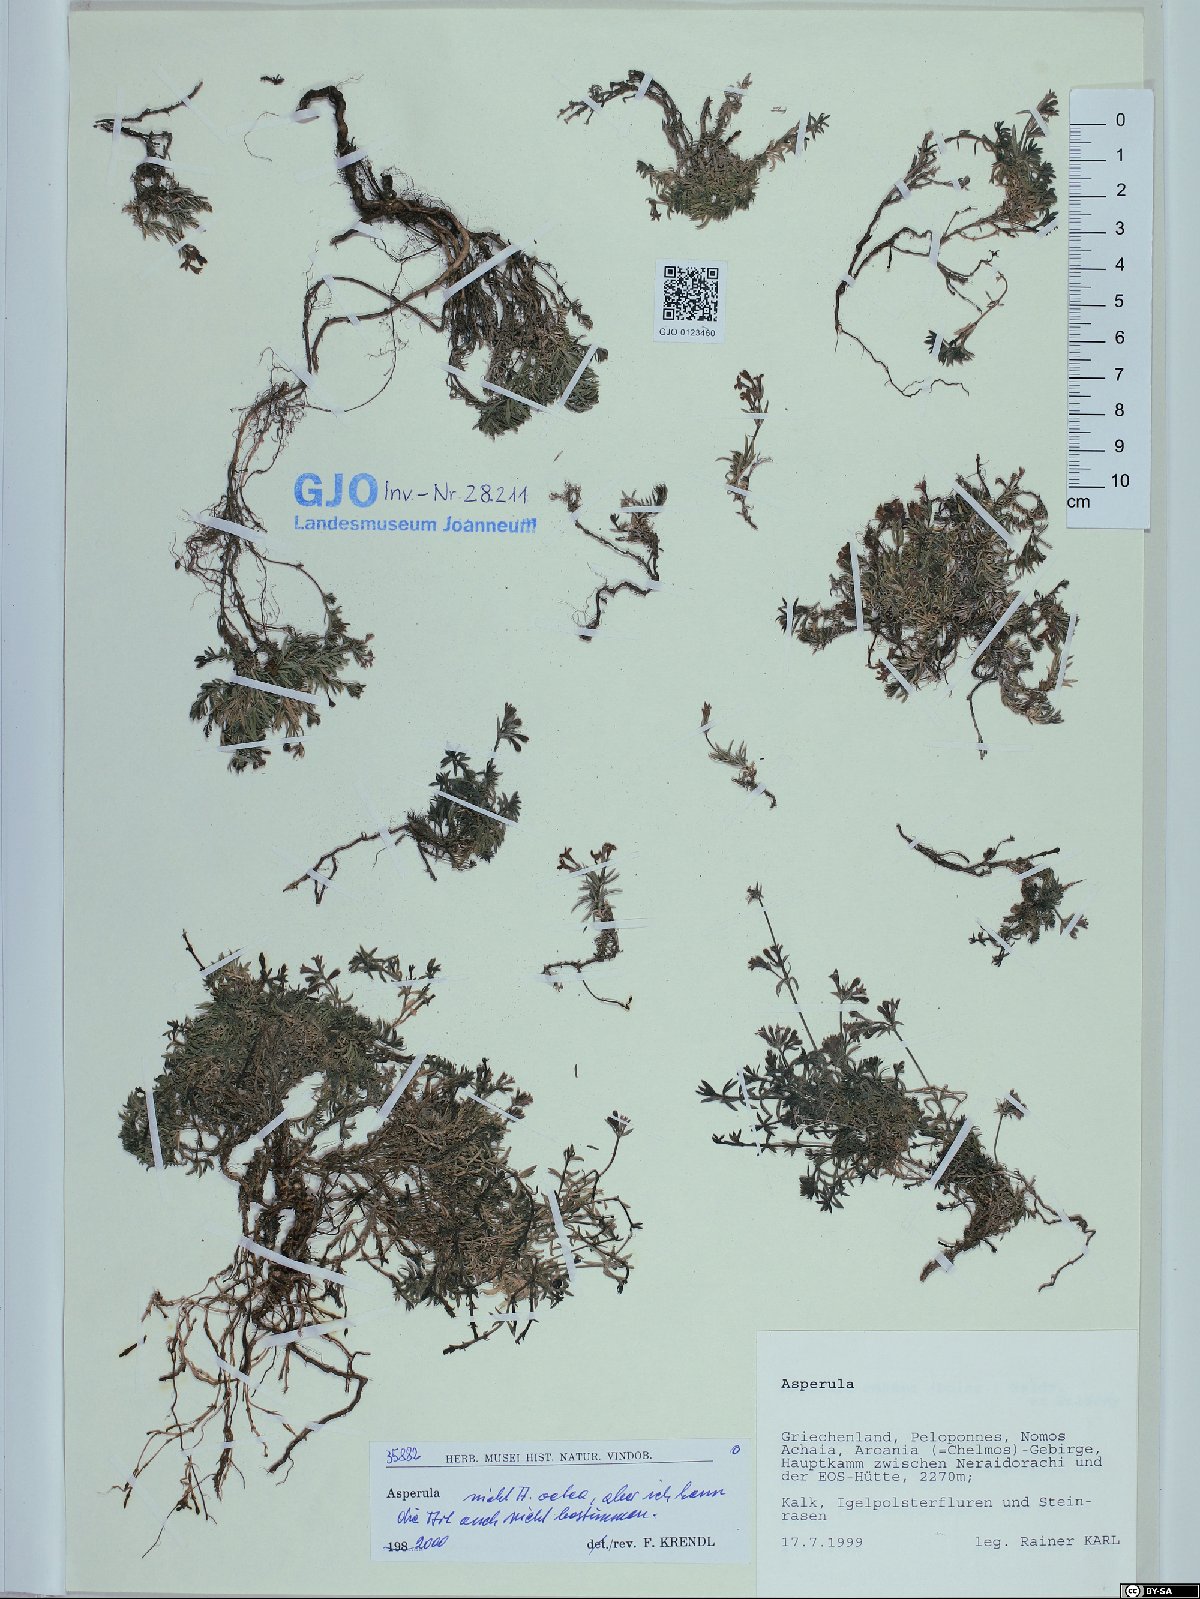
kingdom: Plantae
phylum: Tracheophyta
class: Magnoliopsida
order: Gentianales
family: Rubiaceae
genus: Asperula
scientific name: Asperula
